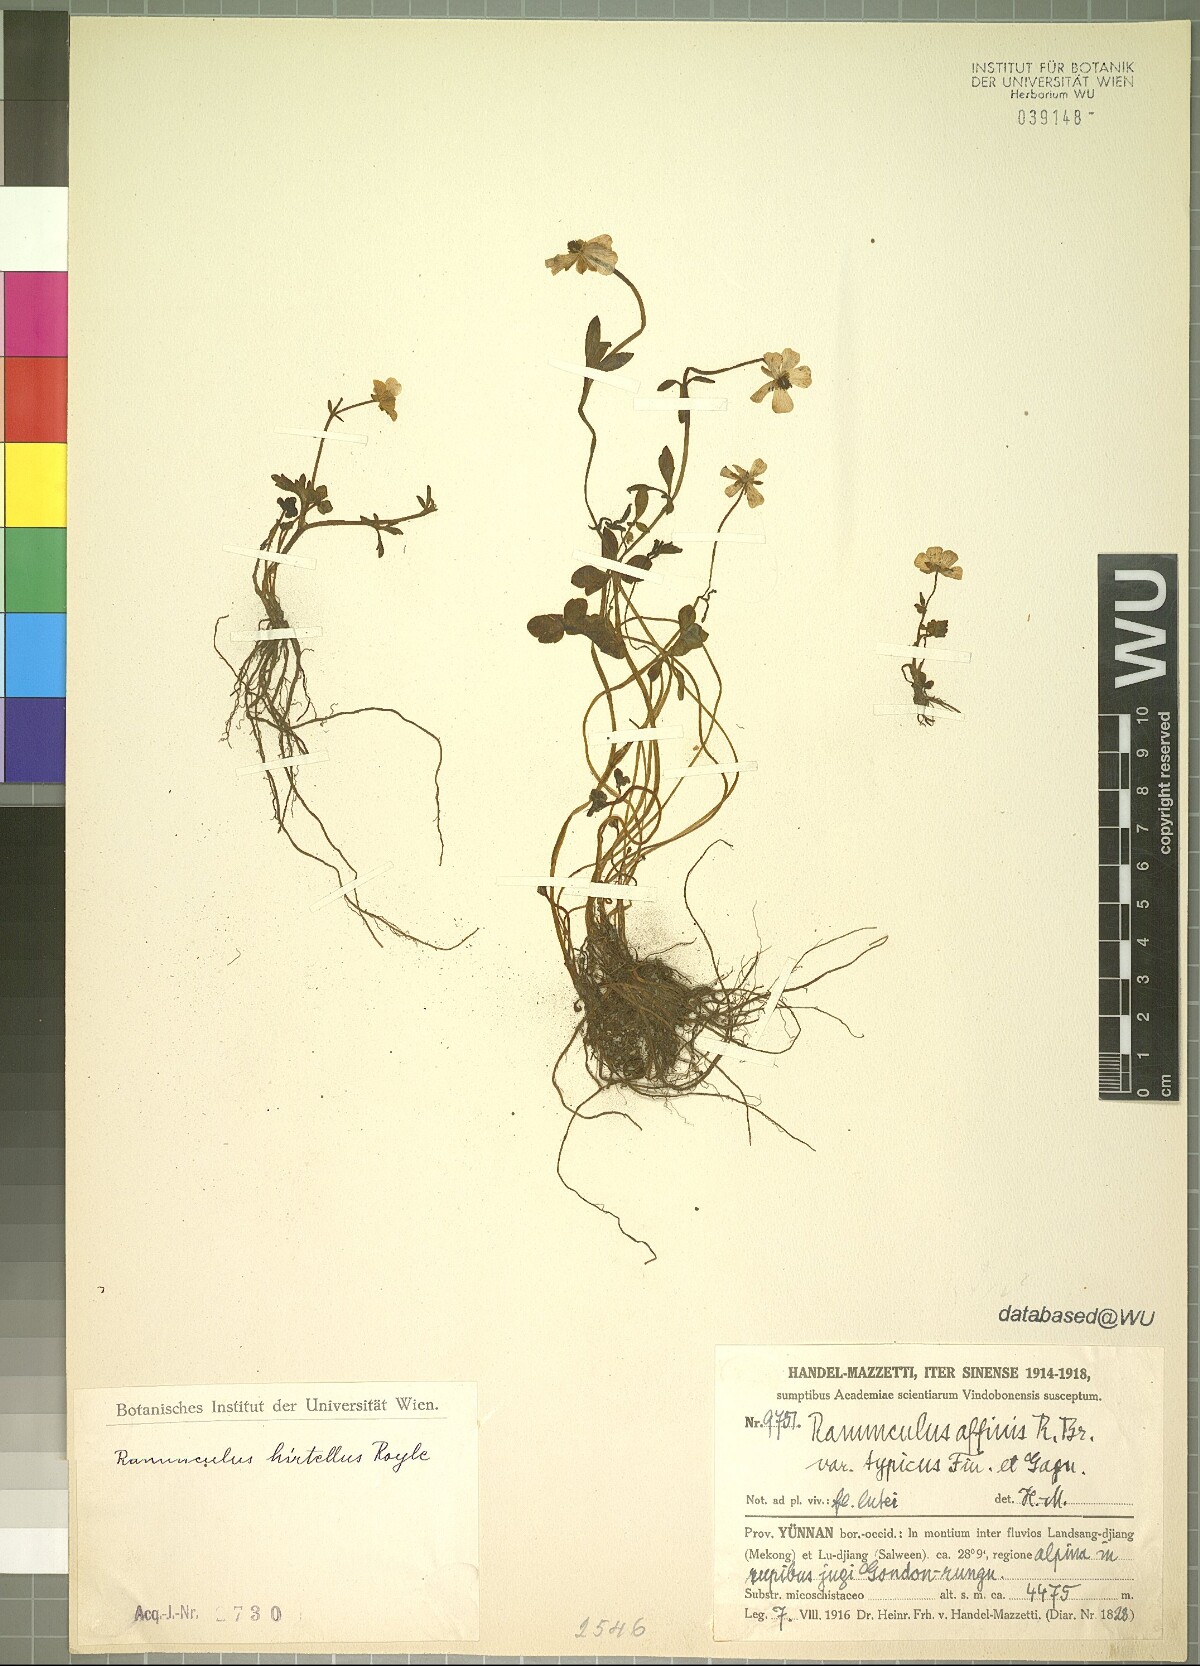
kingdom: Plantae
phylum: Tracheophyta
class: Magnoliopsida
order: Ranunculales
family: Ranunculaceae
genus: Ranunculus
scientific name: Ranunculus hirtellus
